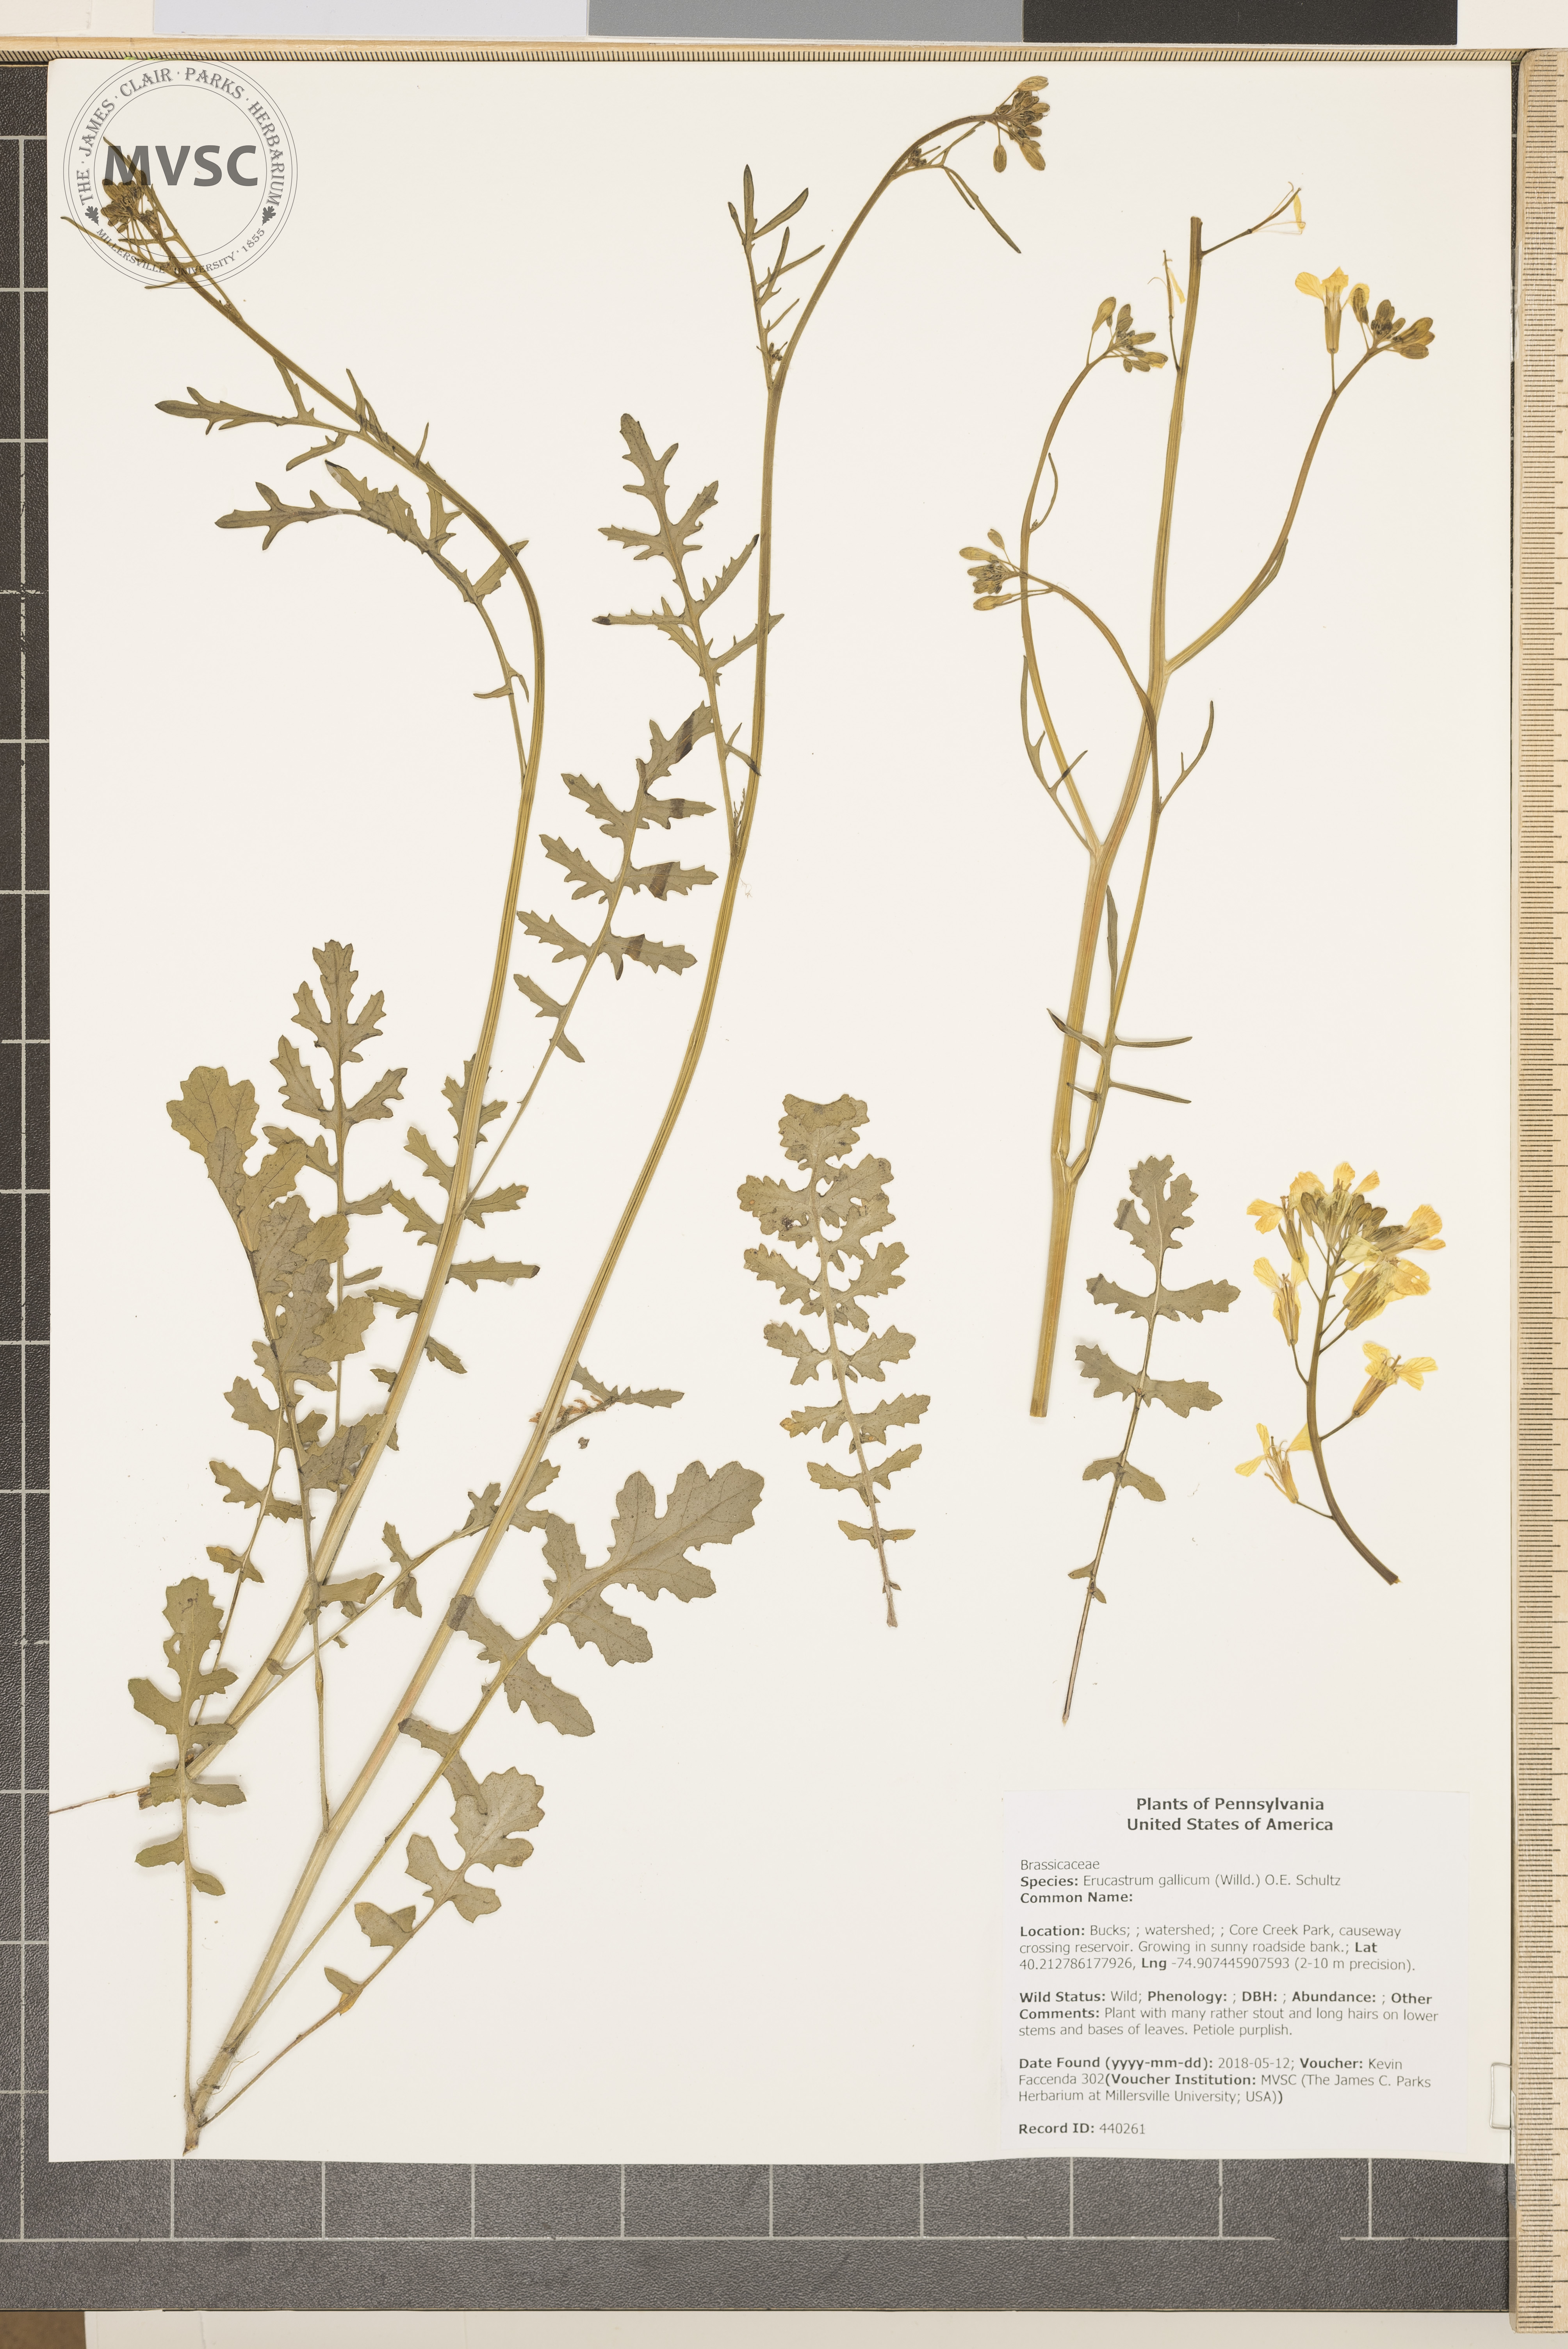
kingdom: Plantae
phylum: Tracheophyta
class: Magnoliopsida
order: Brassicales
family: Brassicaceae
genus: Erucastrum
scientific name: Erucastrum gallicum
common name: Hairy rocket
